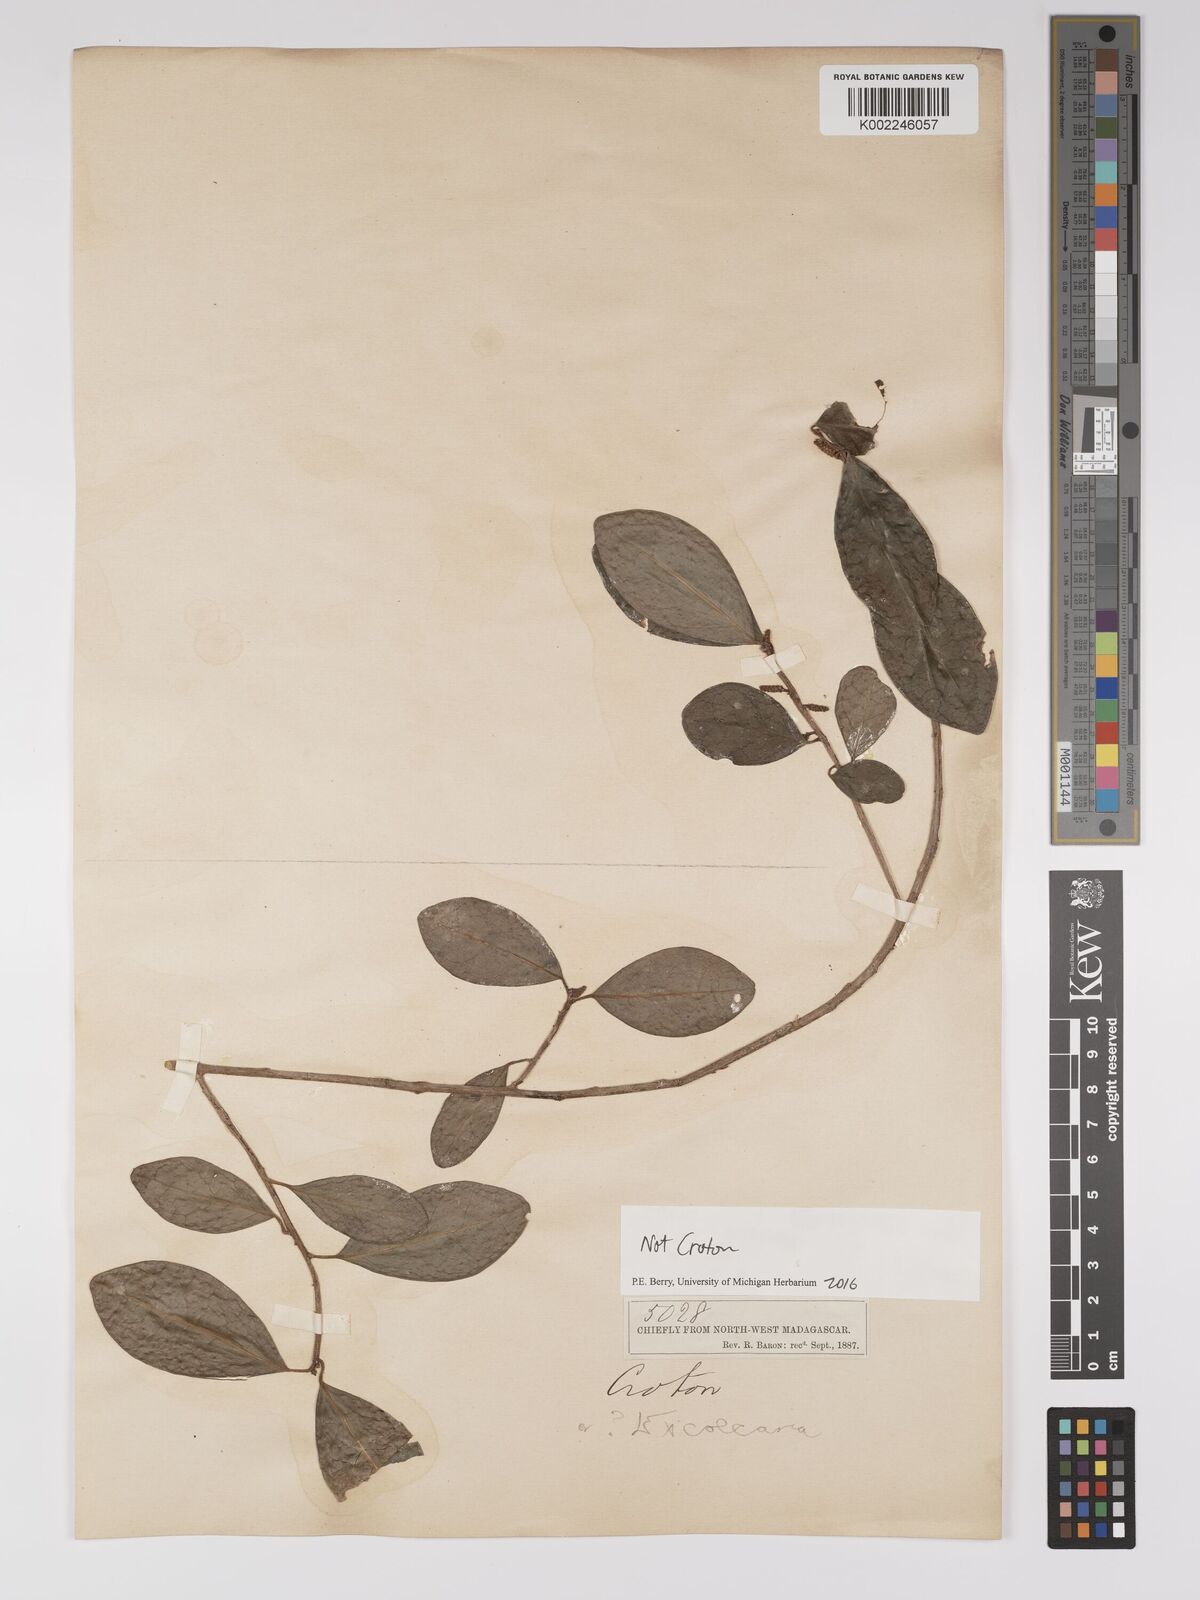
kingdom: Plantae
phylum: Tracheophyta
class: Magnoliopsida
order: Malpighiales
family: Euphorbiaceae
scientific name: Euphorbiaceae
